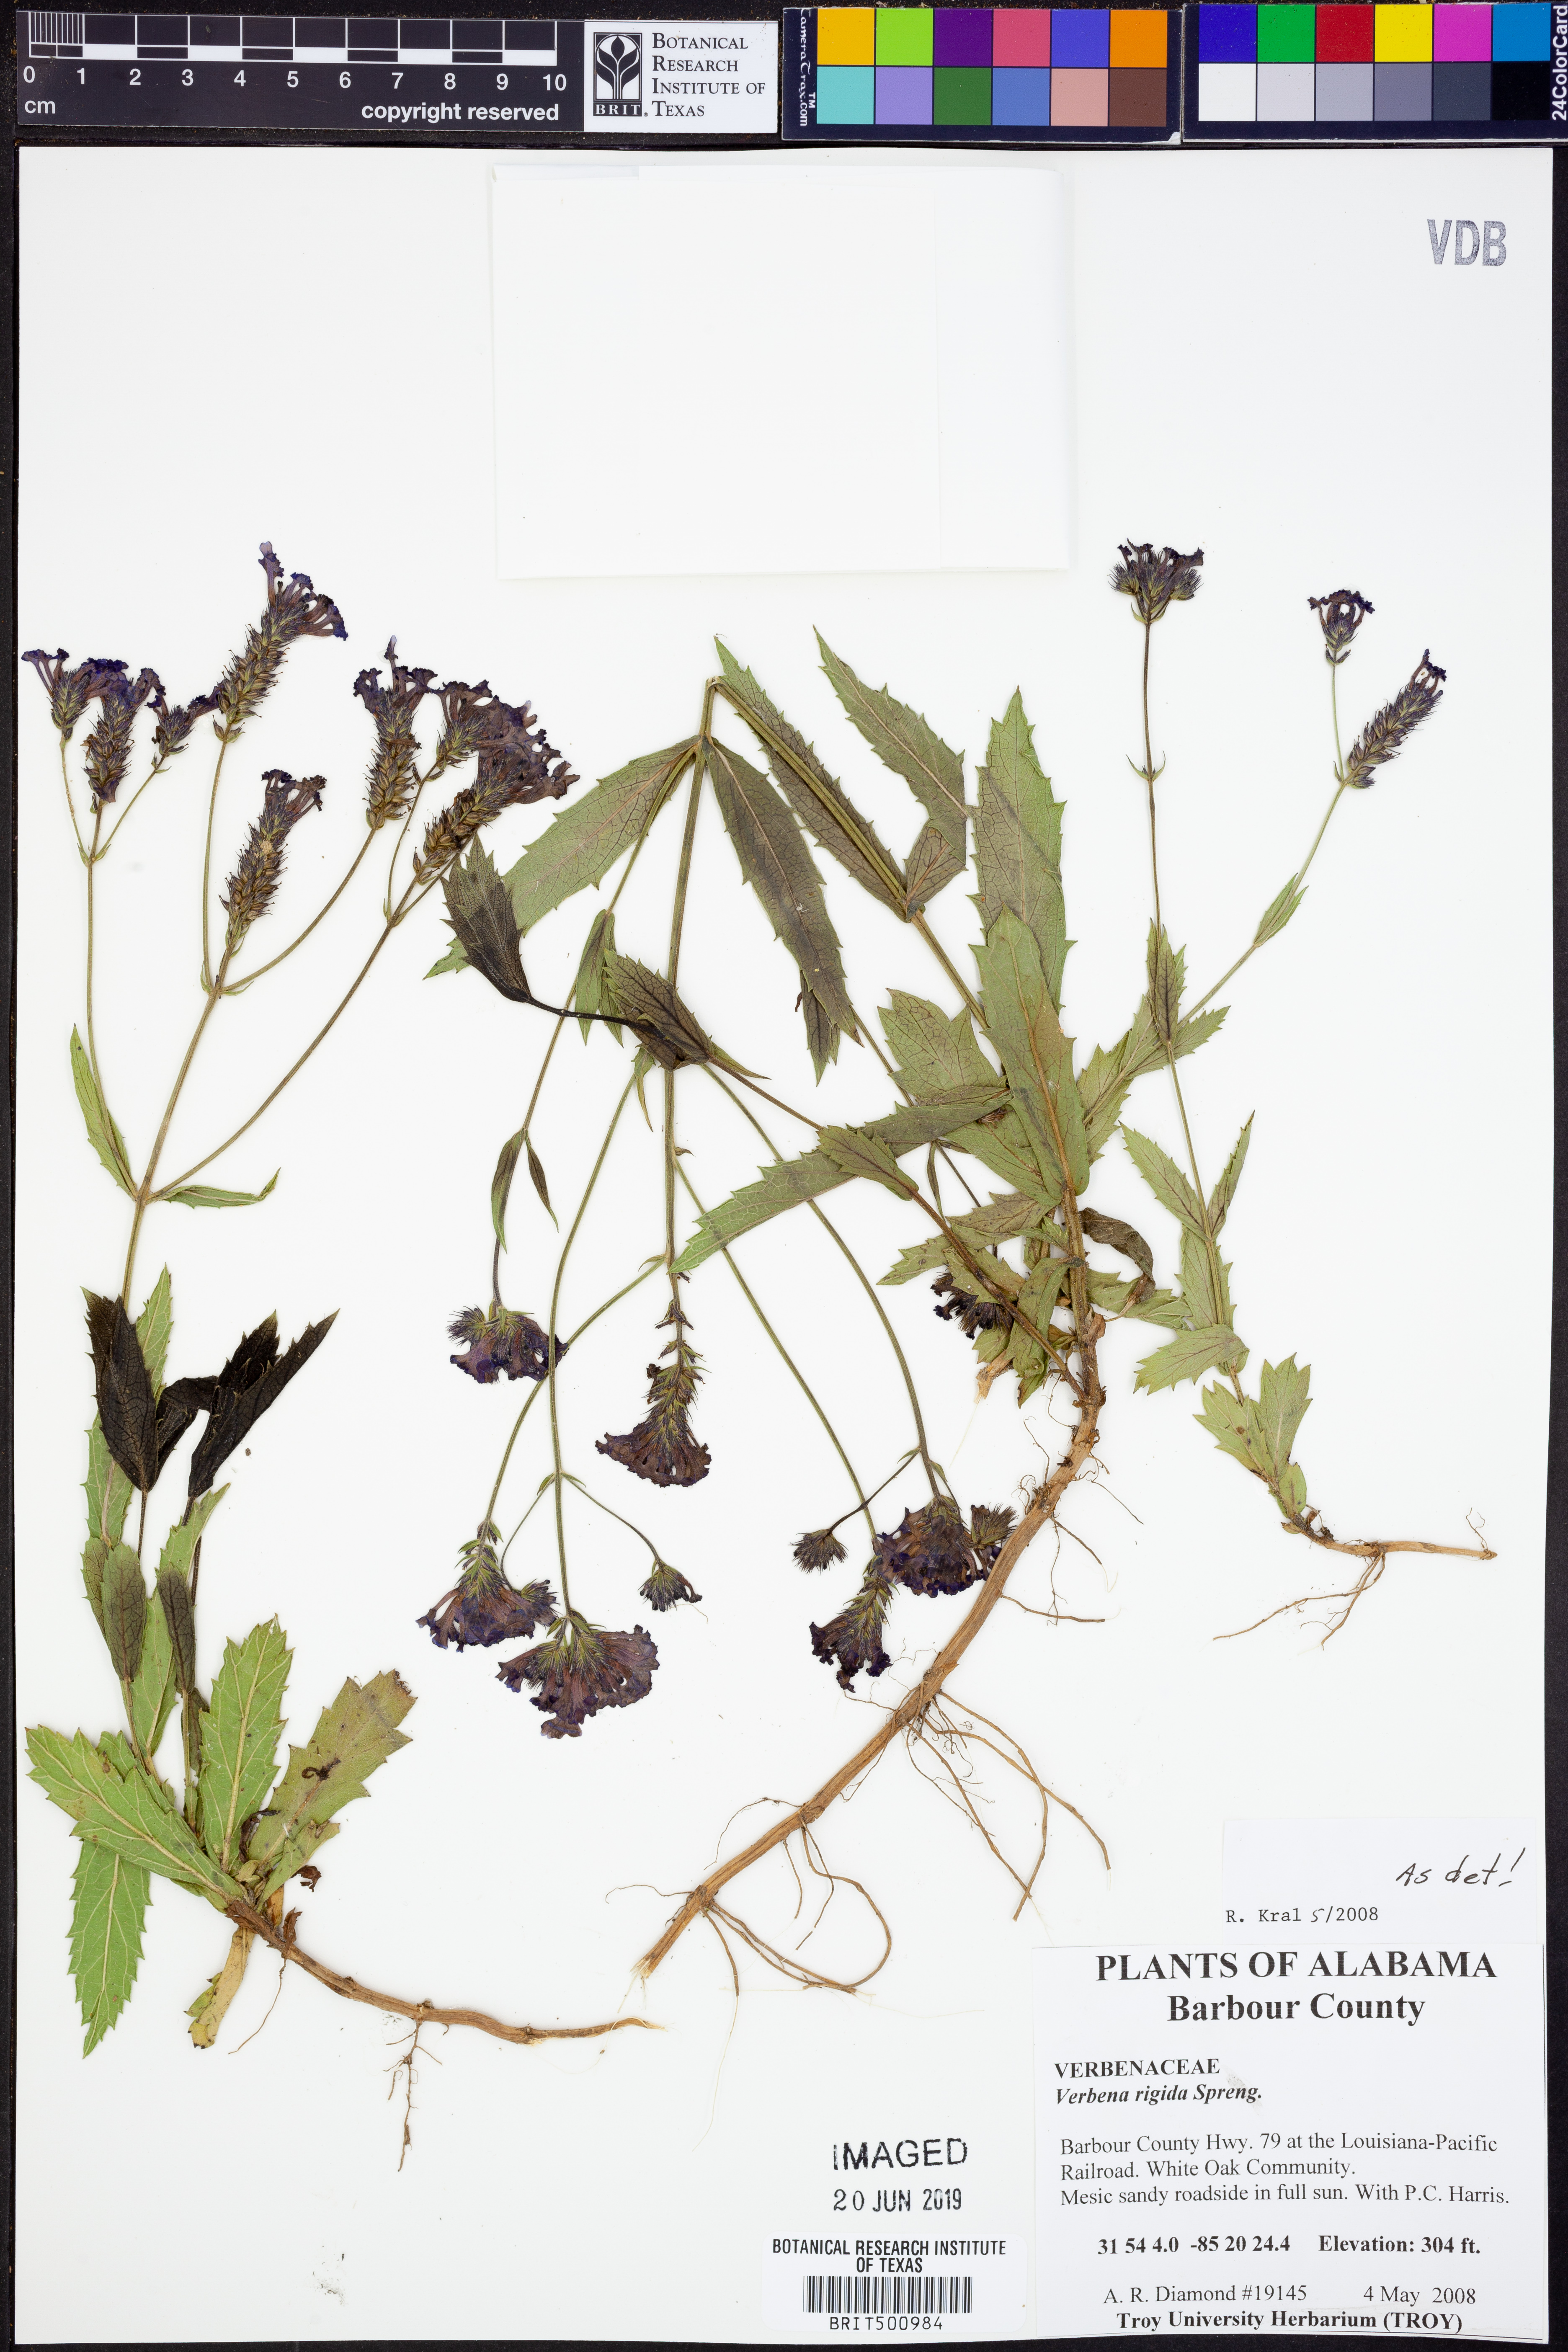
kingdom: Plantae
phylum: Tracheophyta
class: Magnoliopsida
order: Lamiales
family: Verbenaceae
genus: Verbena
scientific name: Verbena rigida
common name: Slender vervain
